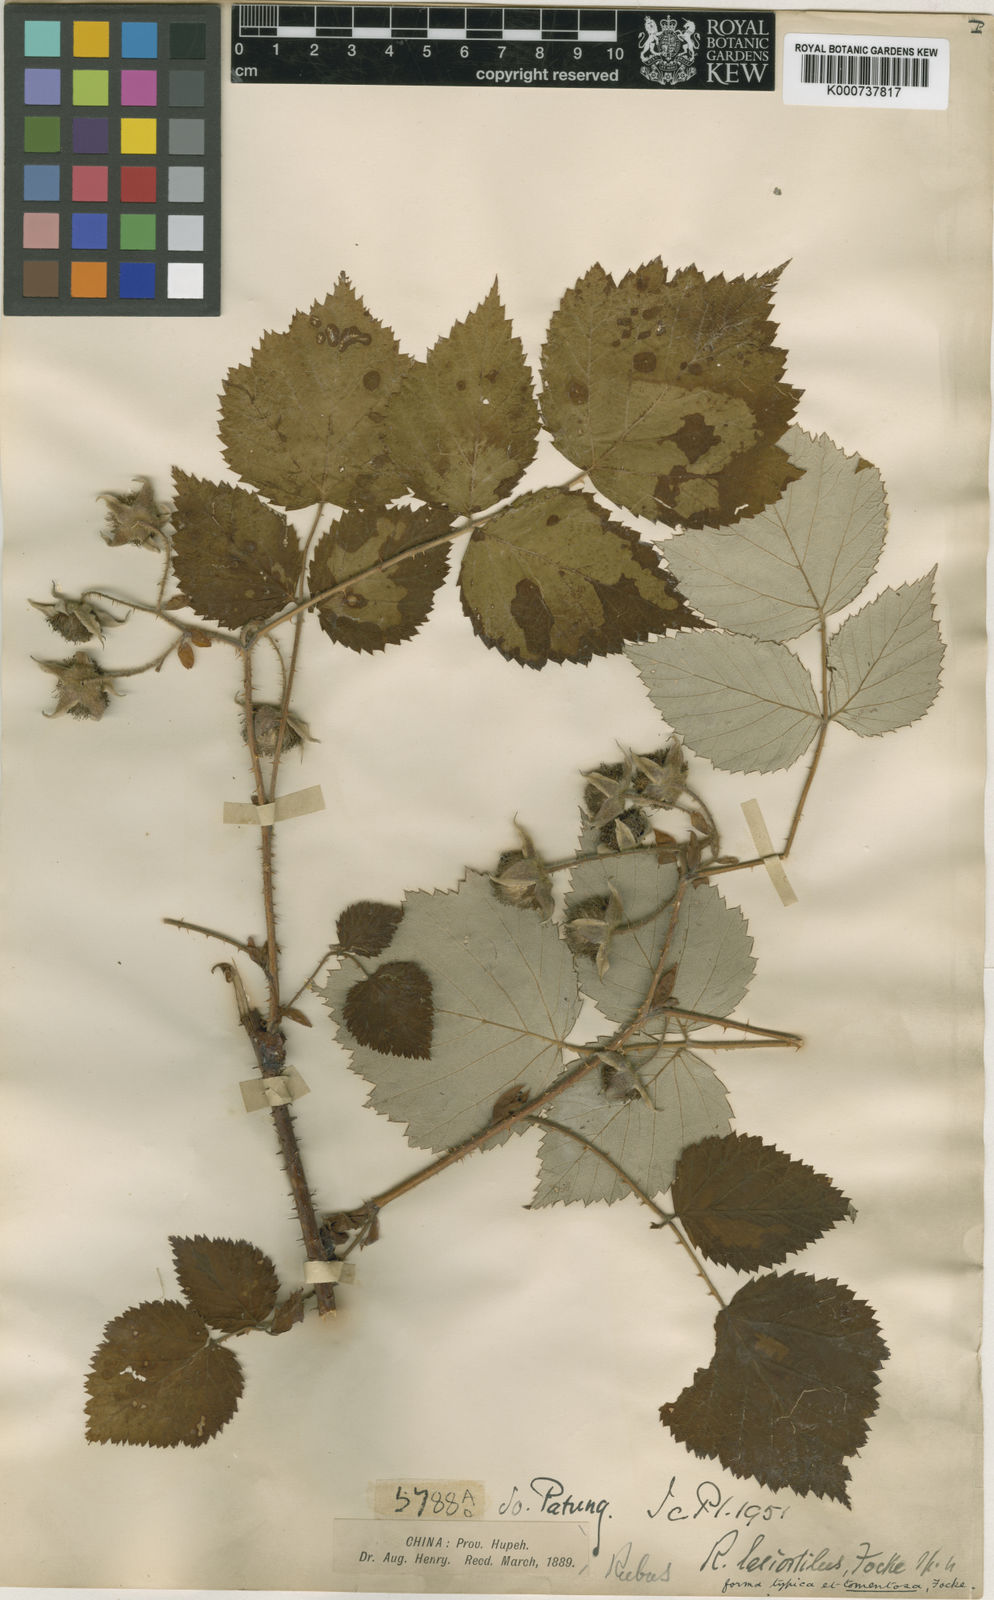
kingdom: Plantae
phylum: Tracheophyta
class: Magnoliopsida
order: Rosales
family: Rosaceae
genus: Rubus
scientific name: Rubus lasiostylus
